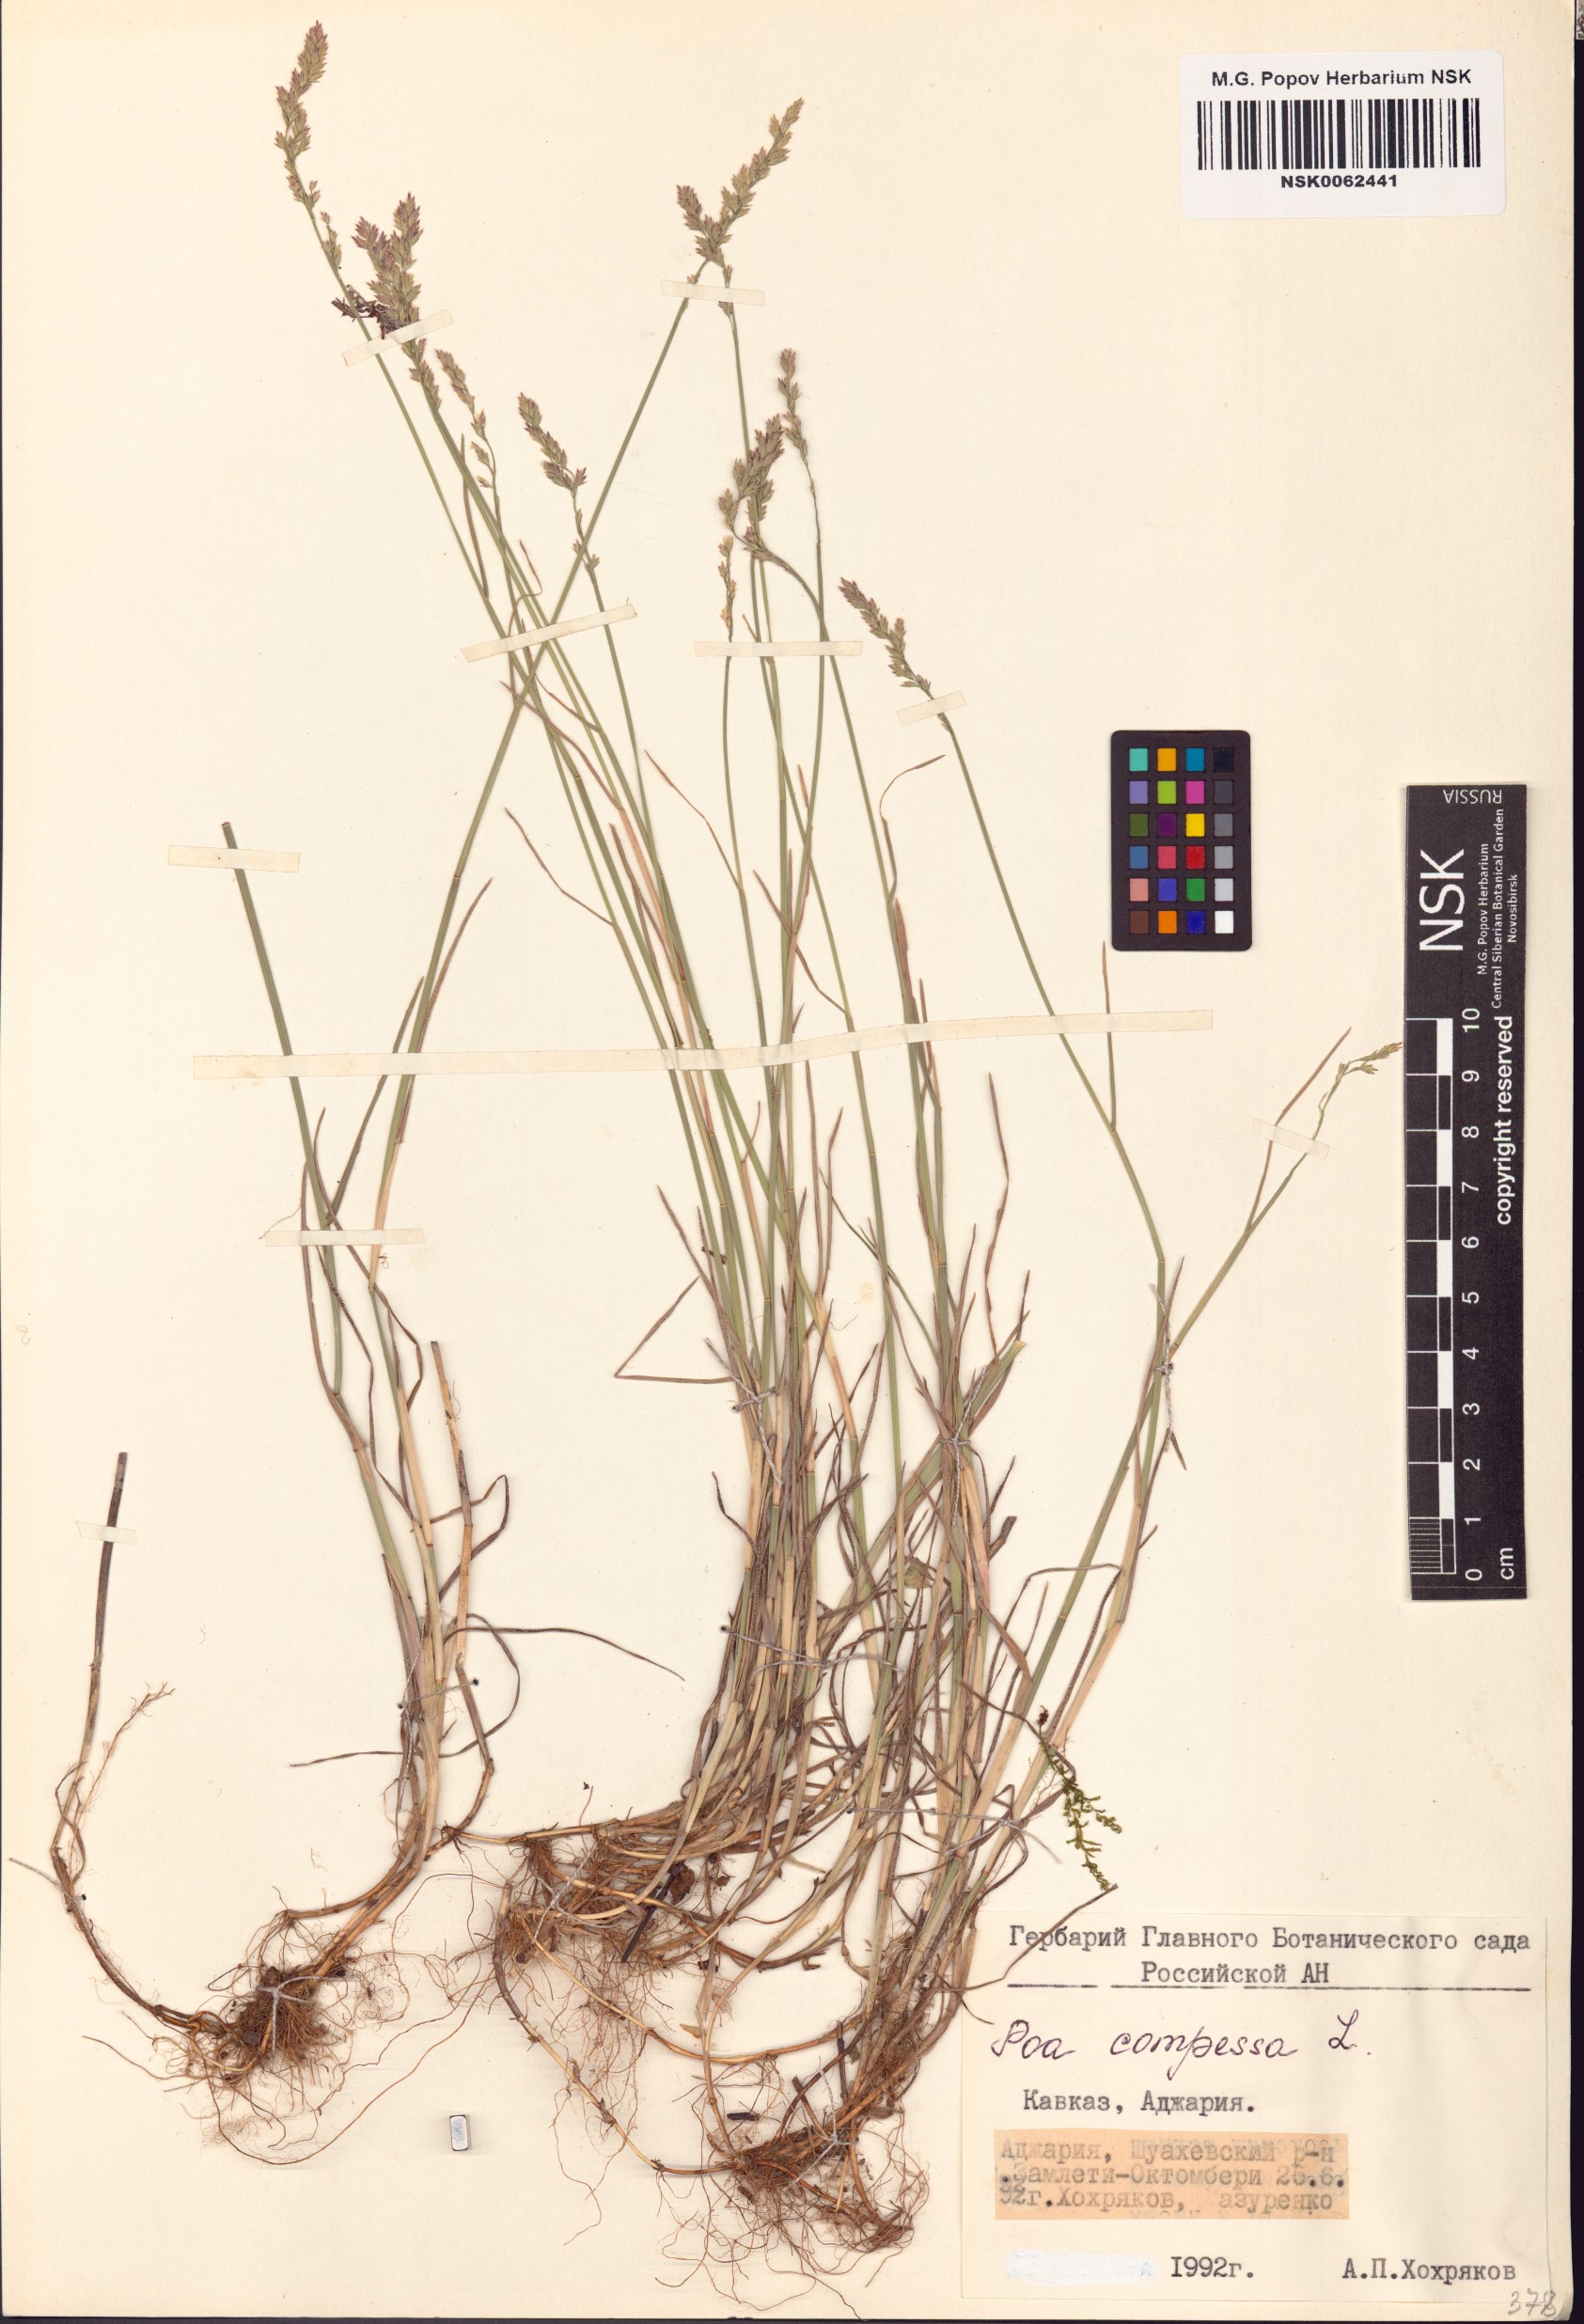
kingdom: Plantae
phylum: Tracheophyta
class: Liliopsida
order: Poales
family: Poaceae
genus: Poa
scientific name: Poa compressa
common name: Canada bluegrass
